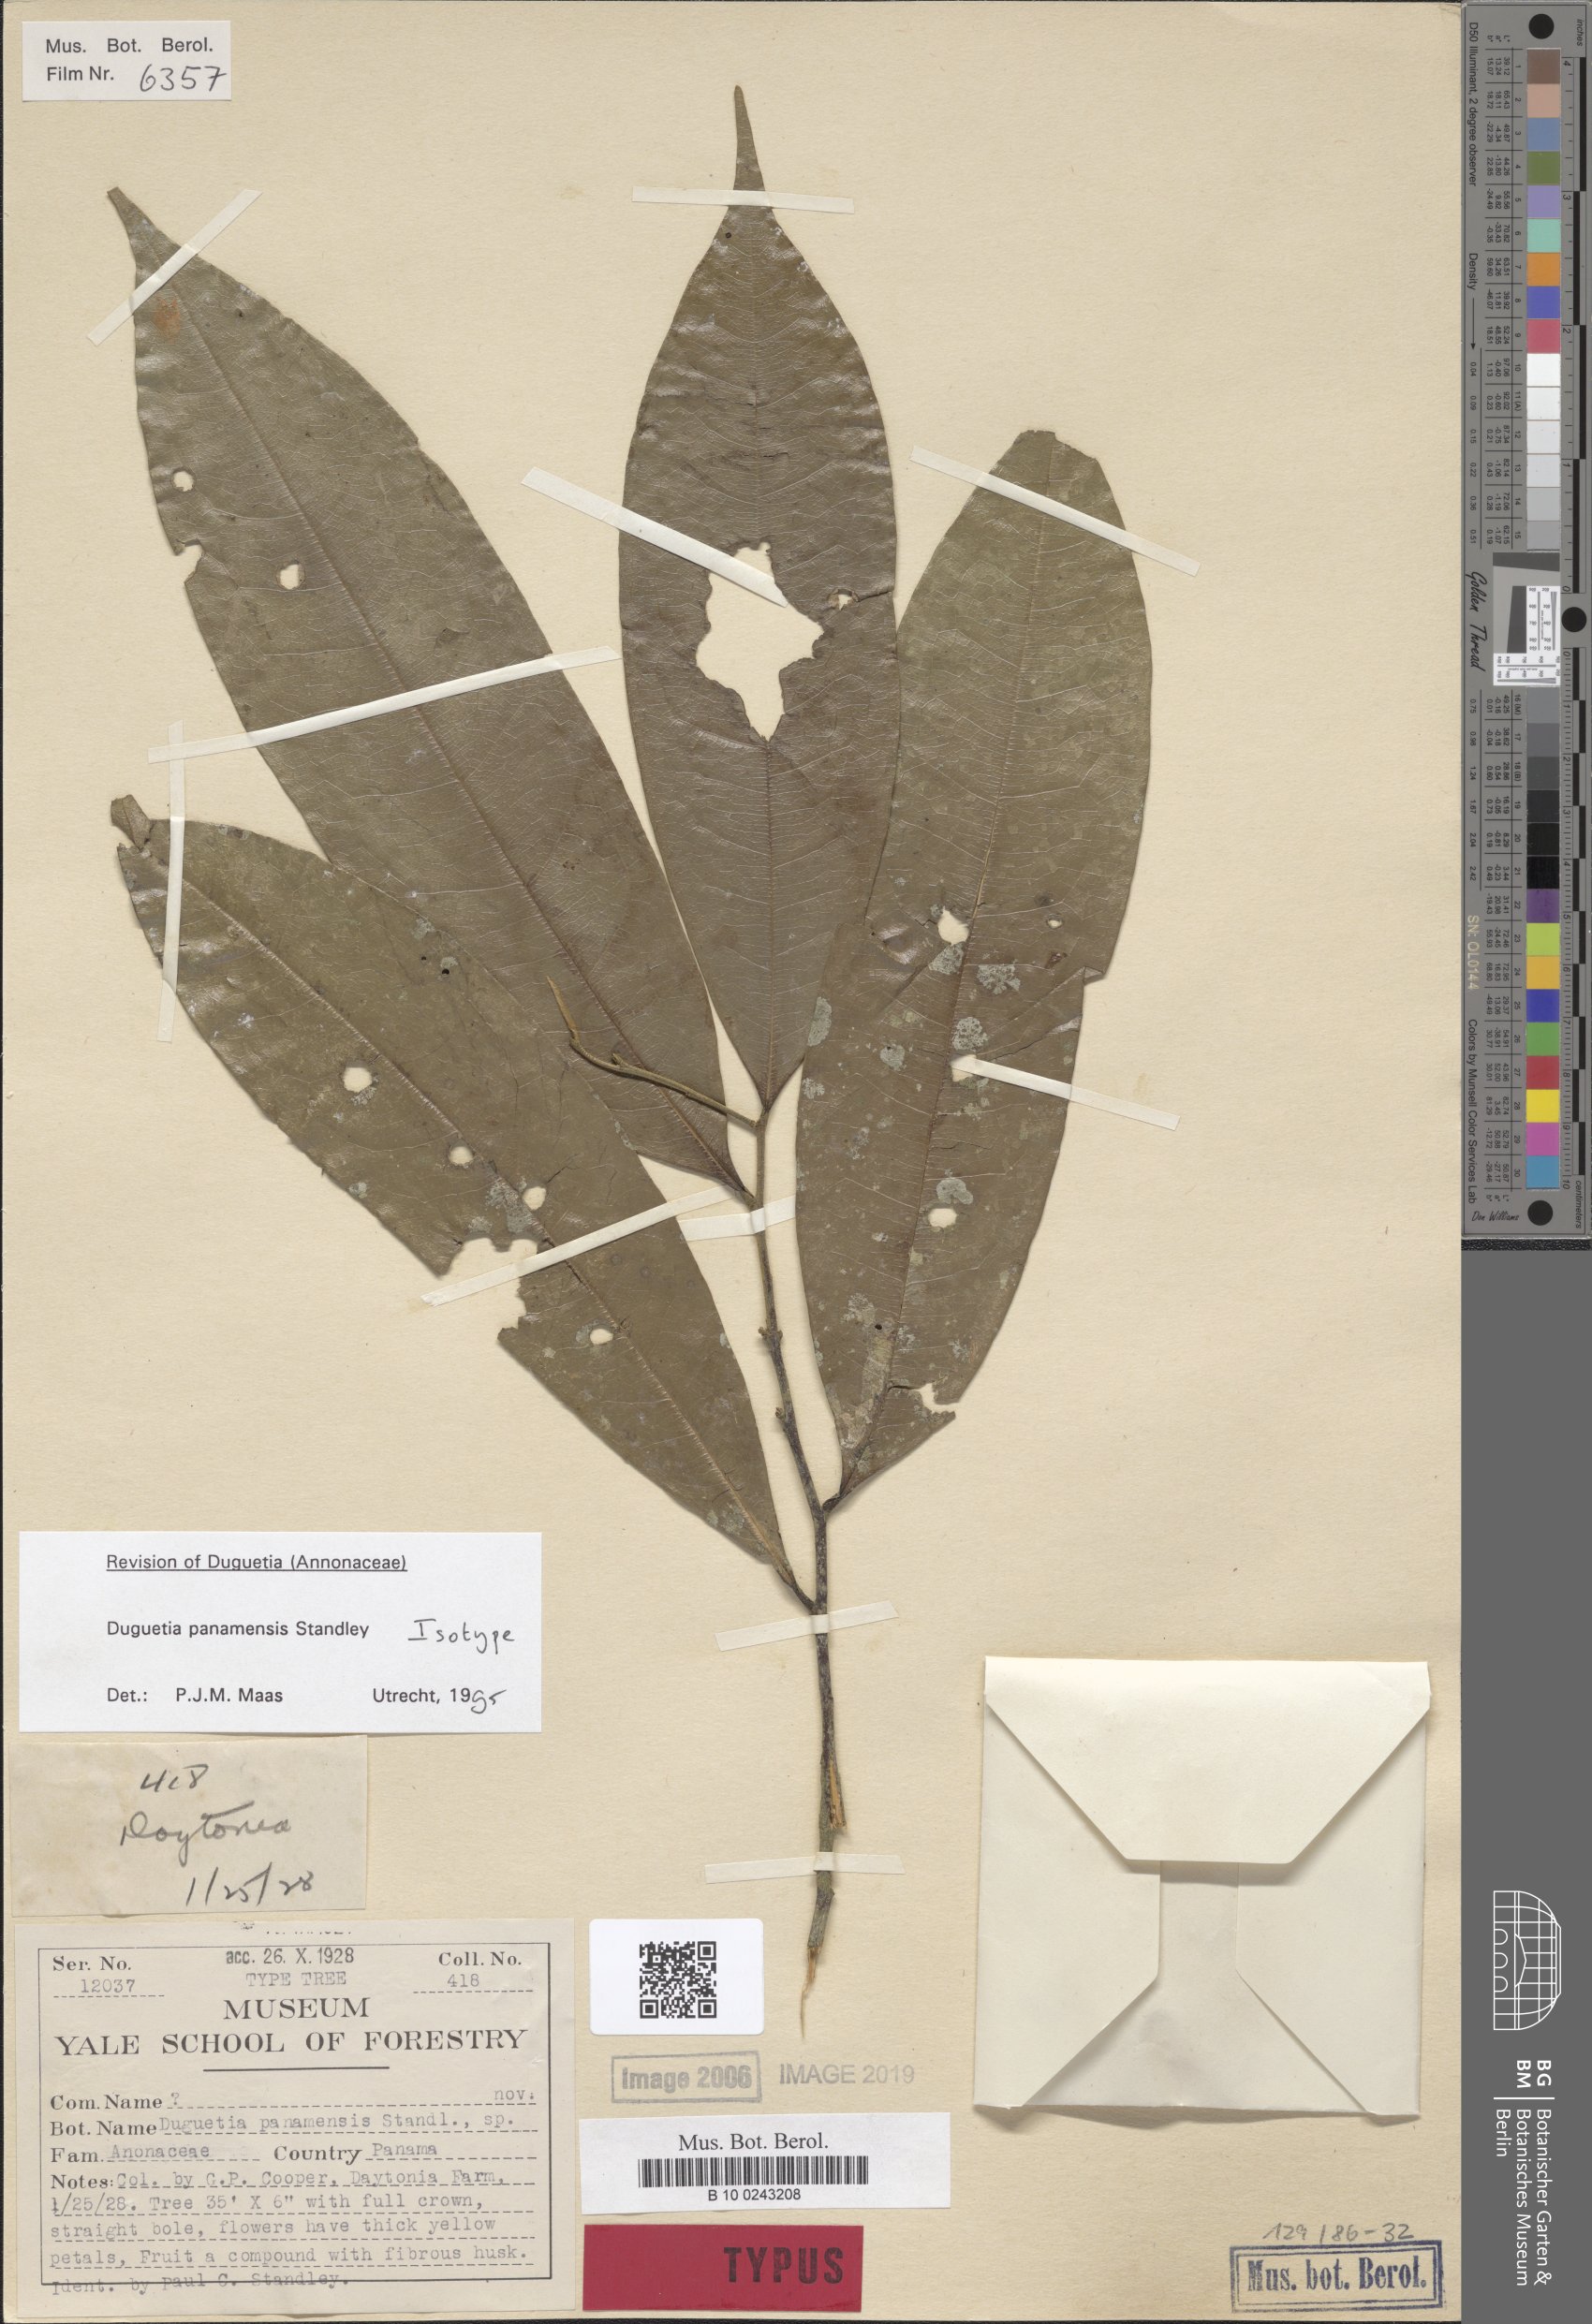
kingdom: Plantae
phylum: Tracheophyta
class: Magnoliopsida
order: Magnoliales
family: Annonaceae
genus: Duguetia
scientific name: Duguetia panamensis
